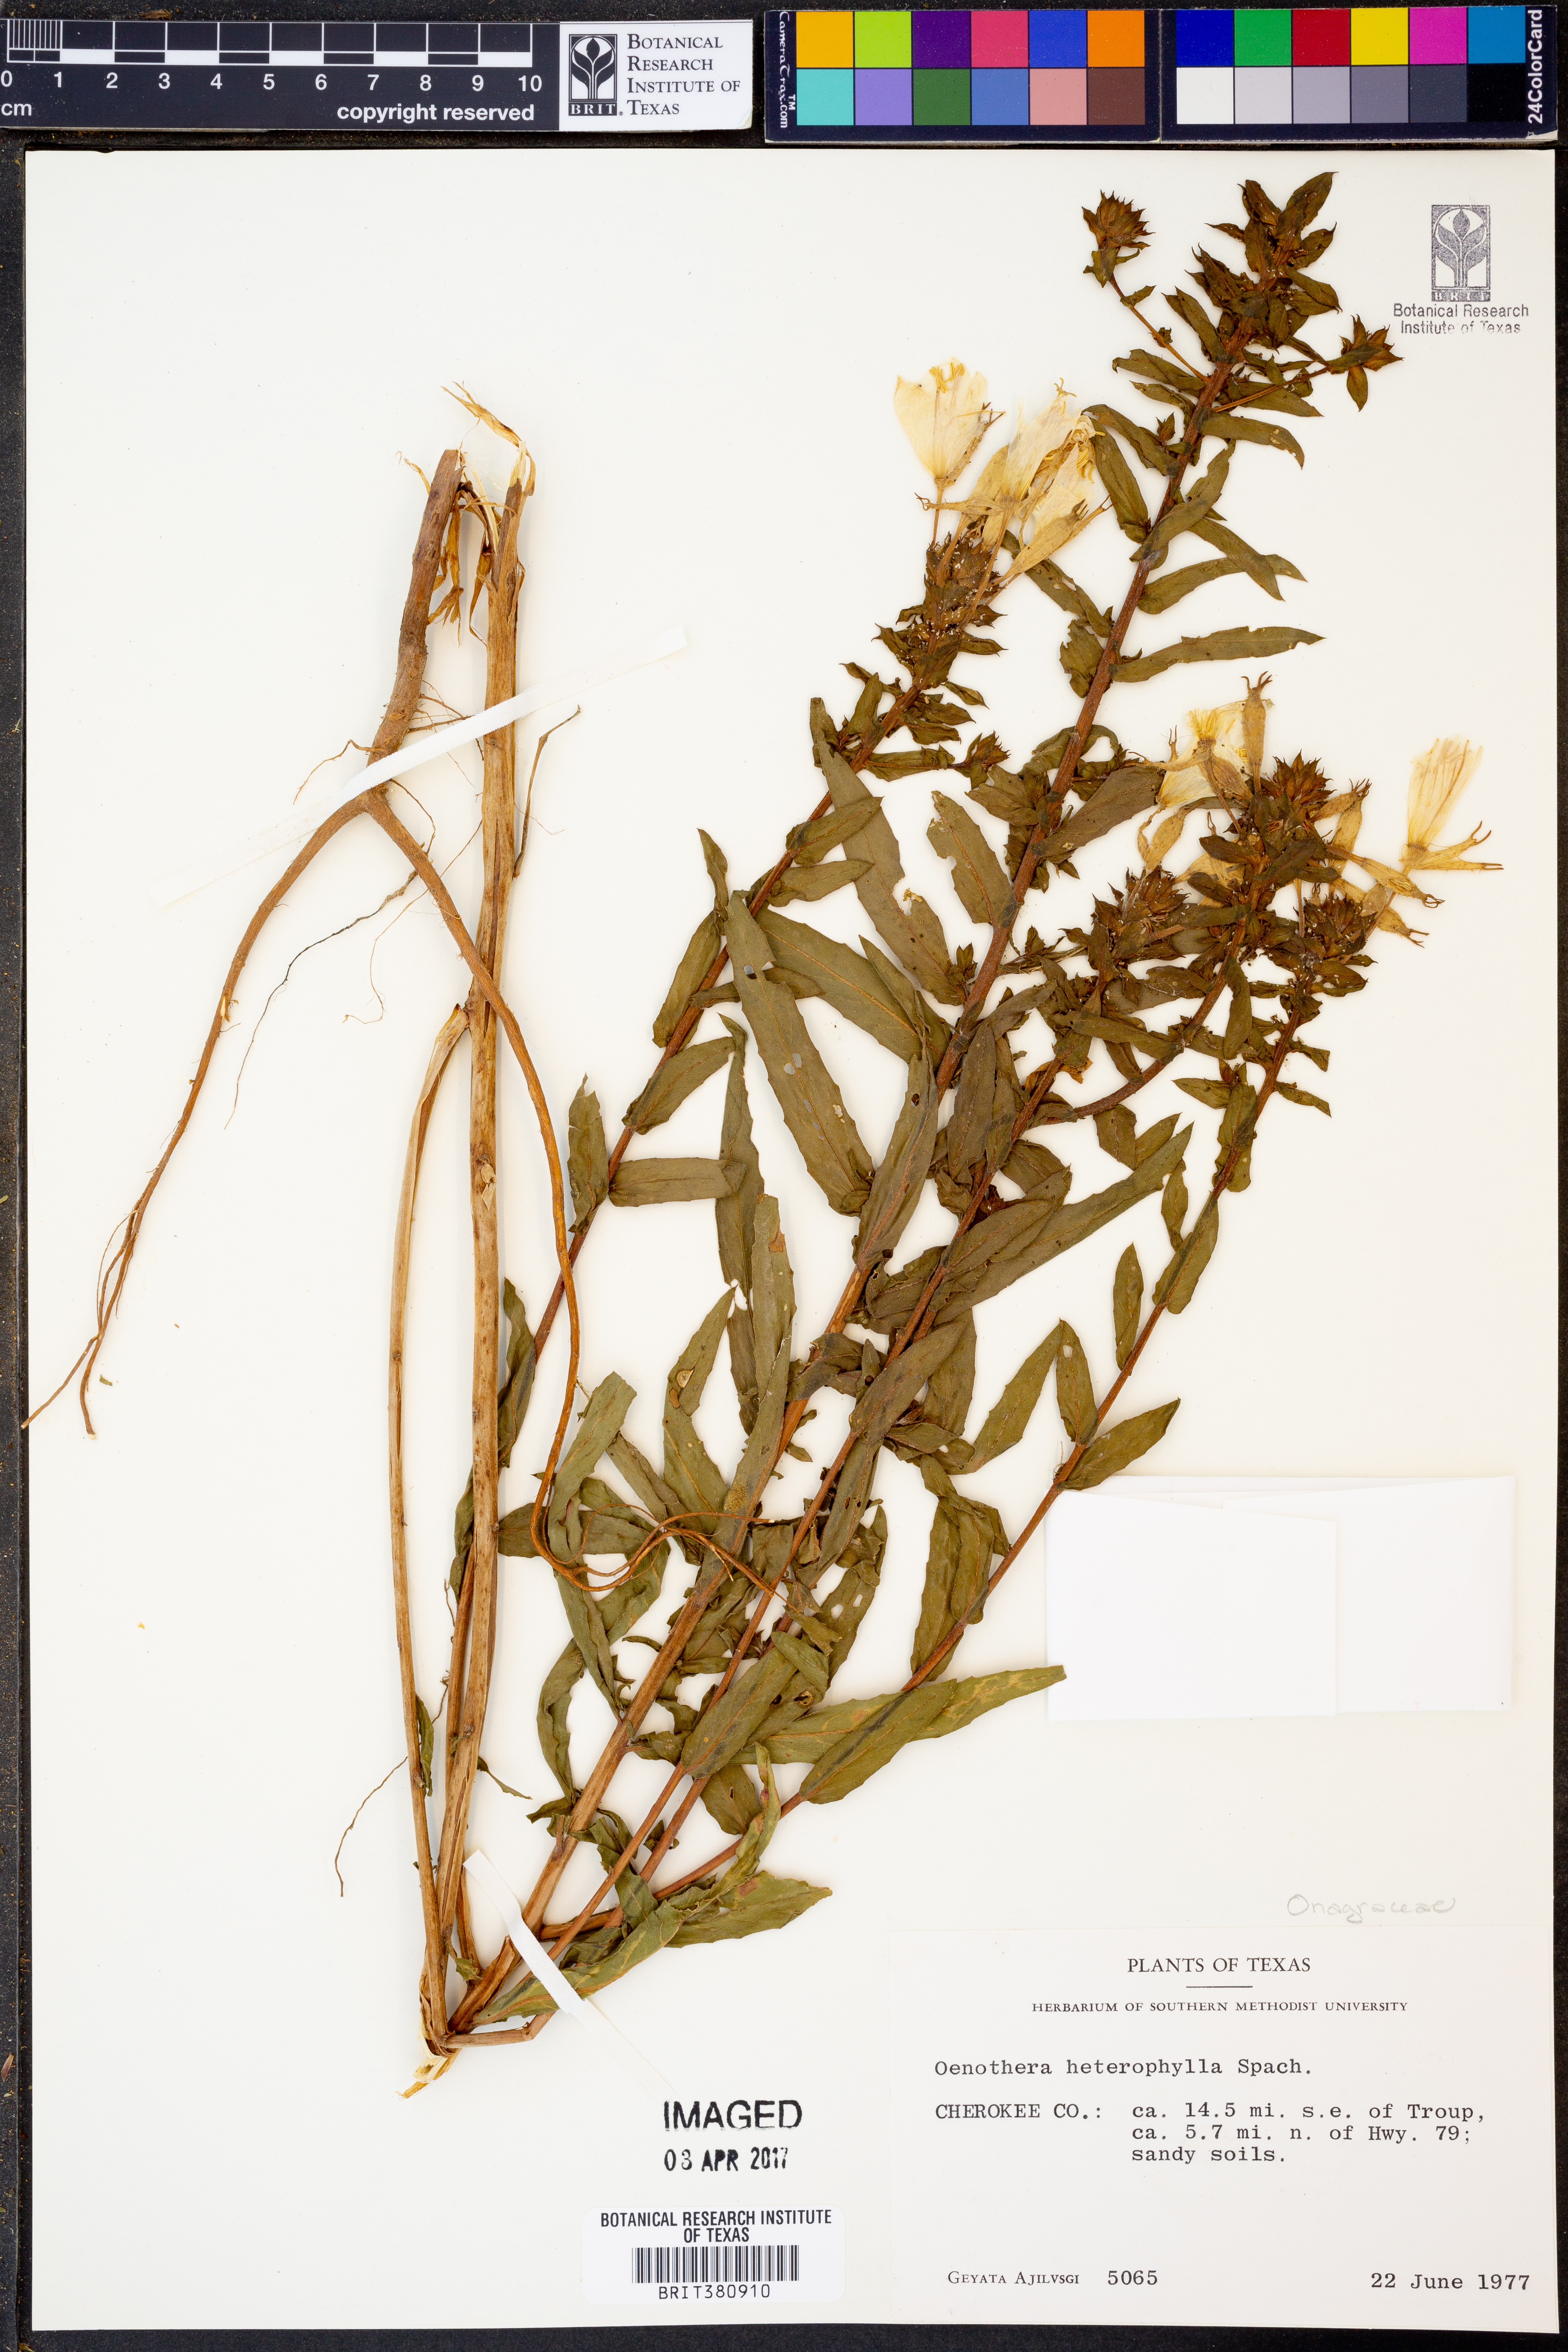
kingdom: Plantae
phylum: Tracheophyta
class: Magnoliopsida
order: Myrtales
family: Onagraceae
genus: Camissonia
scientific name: Camissonia dentata
